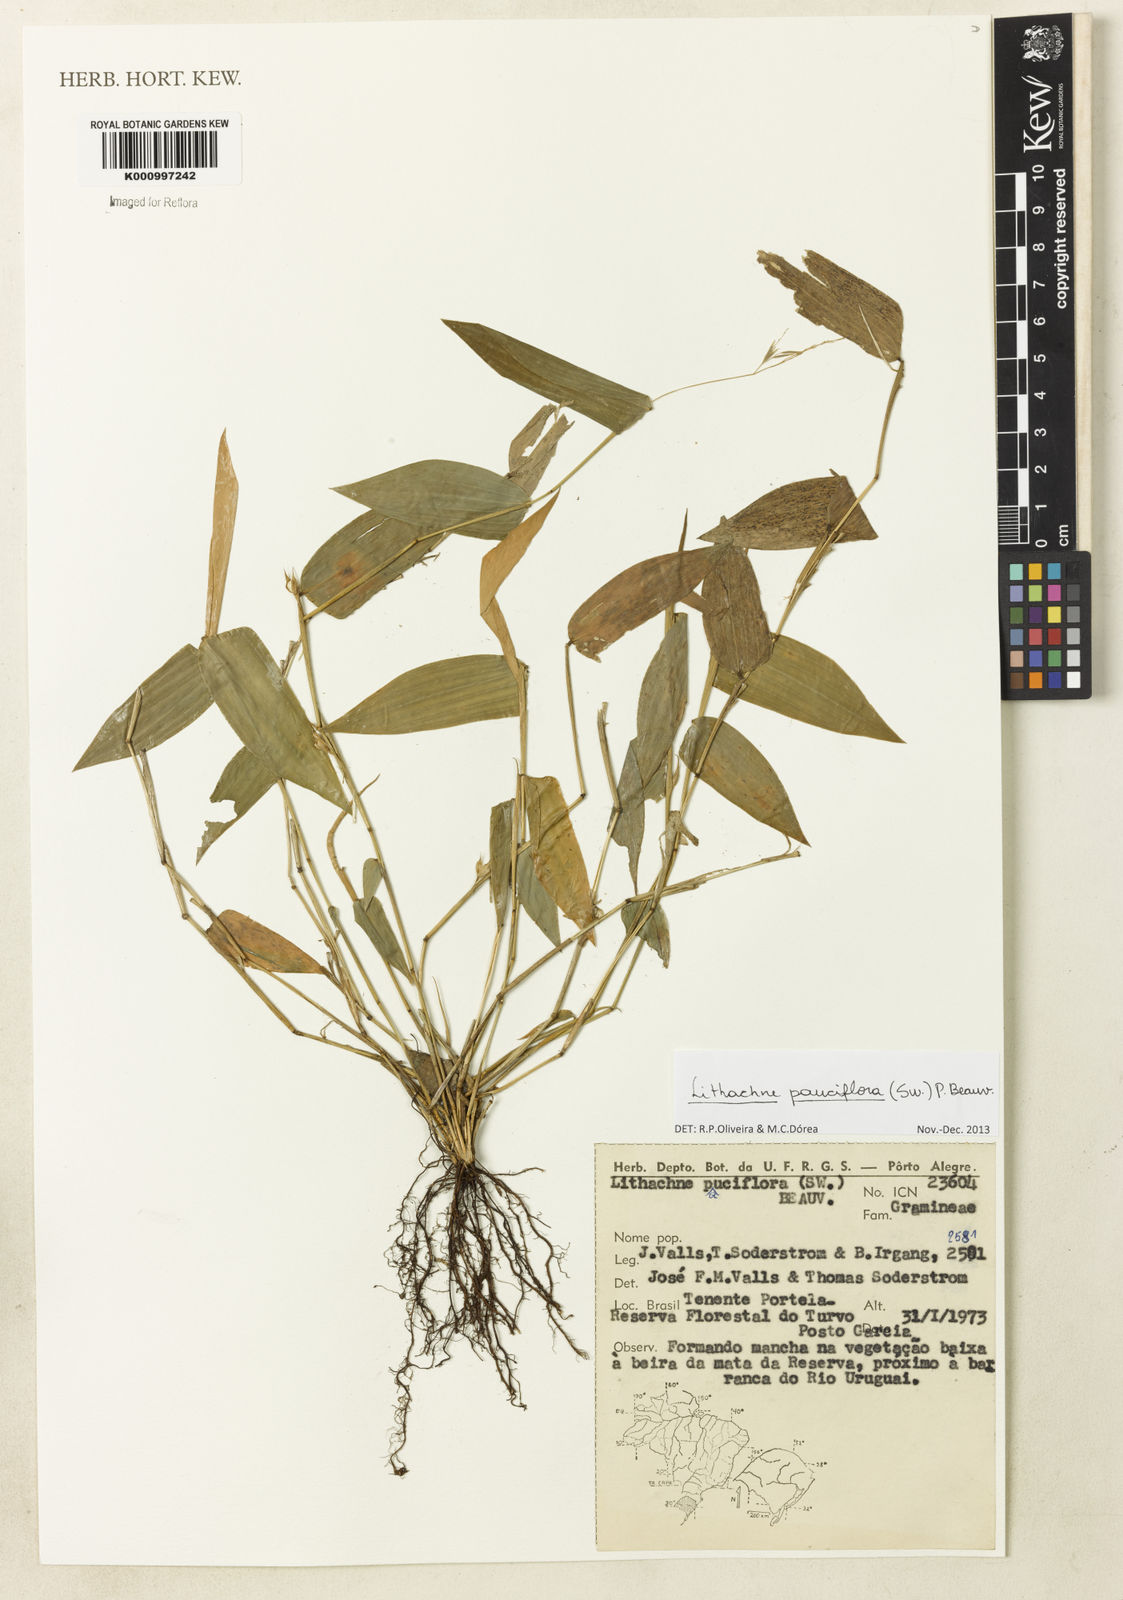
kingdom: Plantae
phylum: Tracheophyta
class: Liliopsida
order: Poales
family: Poaceae
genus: Lithachne
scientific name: Lithachne pauciflora
